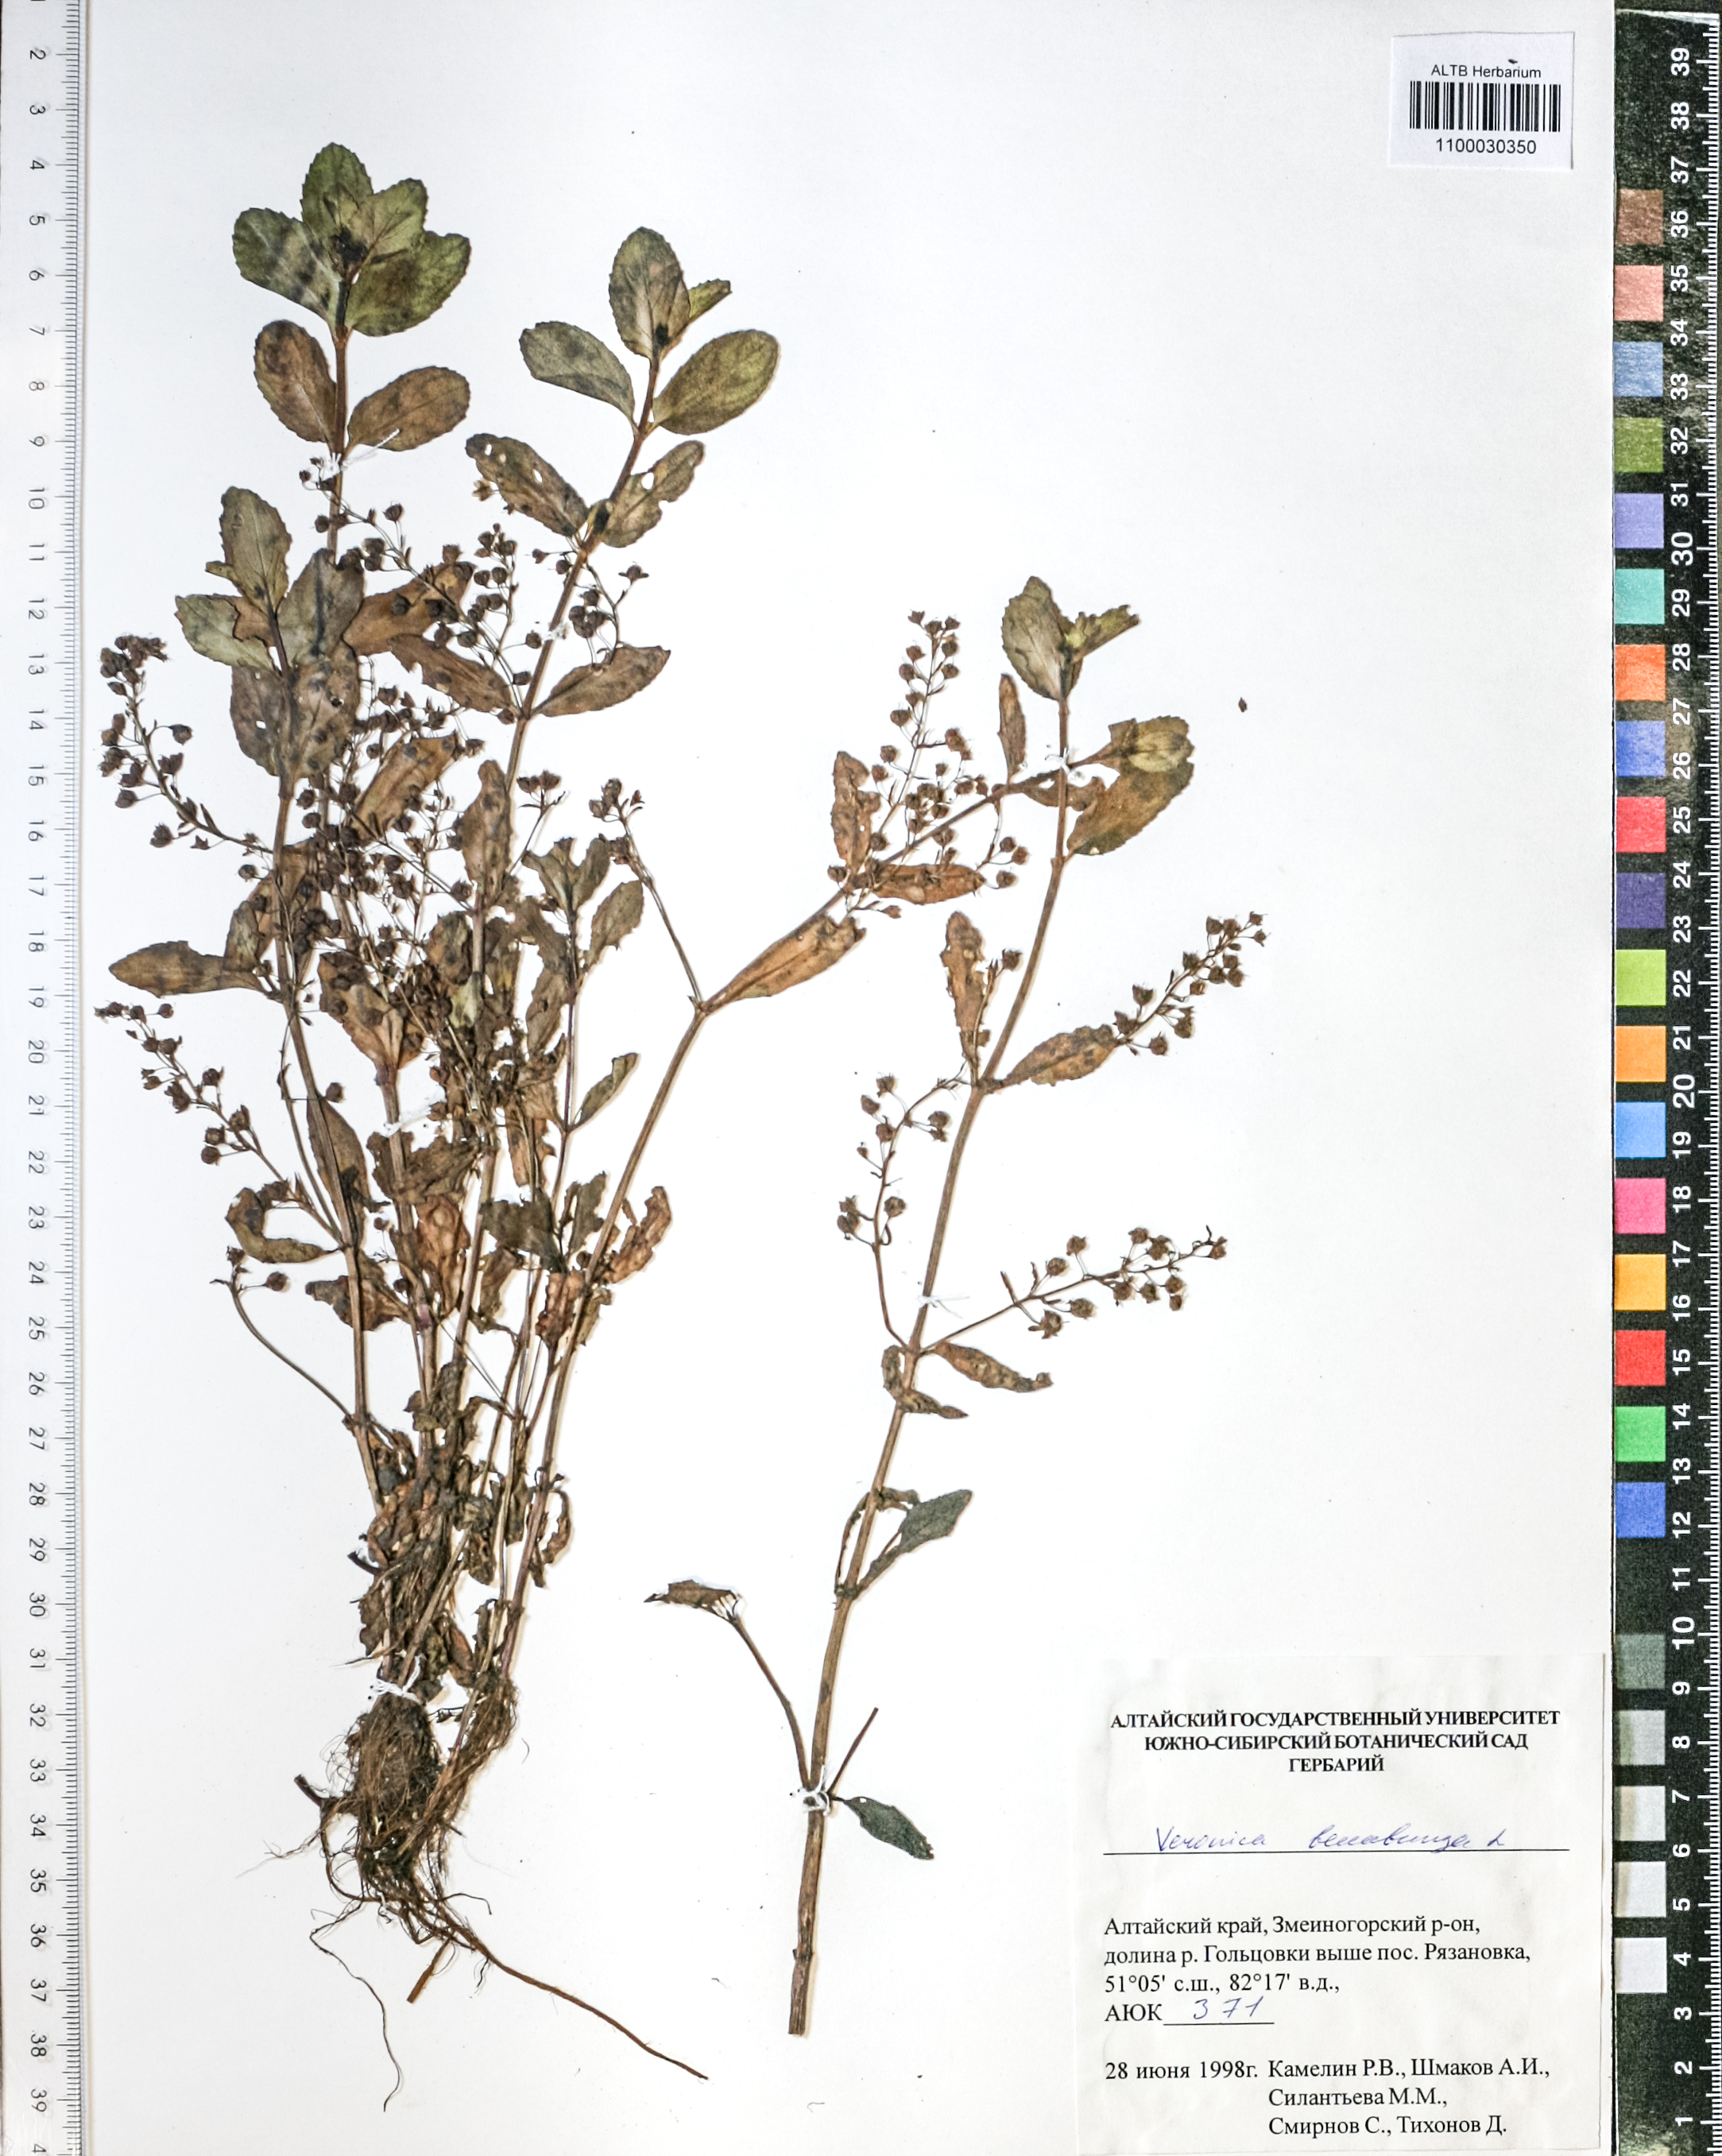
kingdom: Plantae
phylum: Tracheophyta
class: Magnoliopsida
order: Lamiales
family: Plantaginaceae
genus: Veronica
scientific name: Veronica beccabunga
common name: Brooklime
